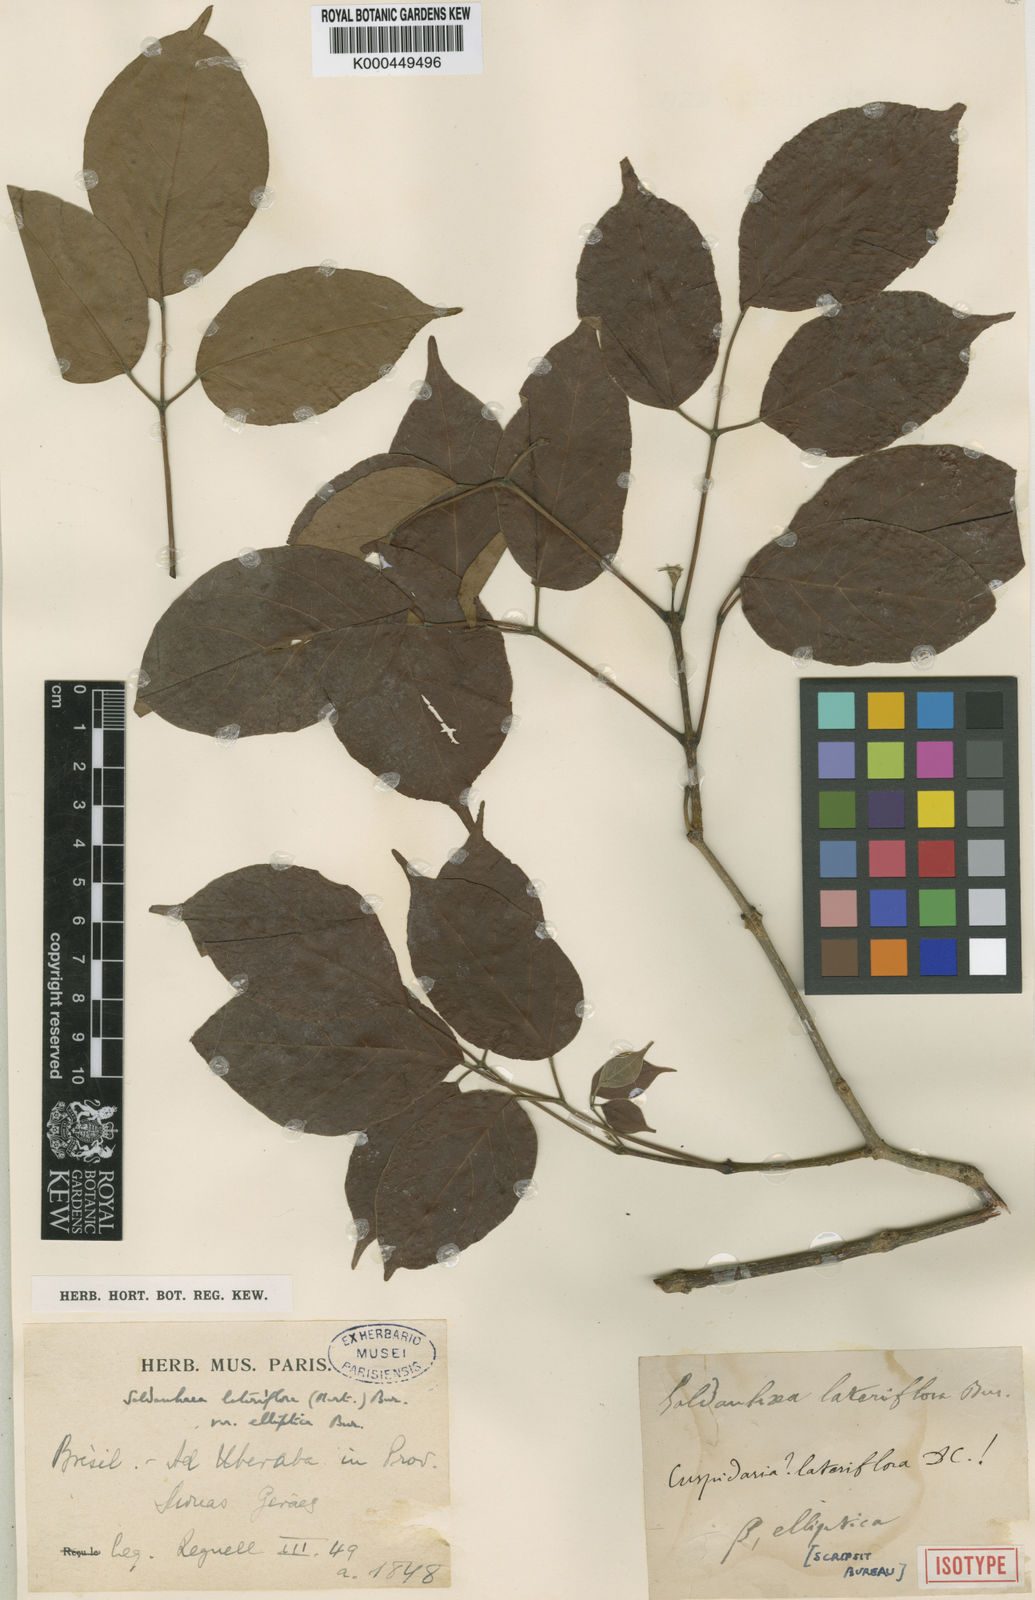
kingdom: Plantae
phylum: Tracheophyta
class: Magnoliopsida
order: Lamiales
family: Bignoniaceae
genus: Cuspidaria
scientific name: Cuspidaria lateriflora
